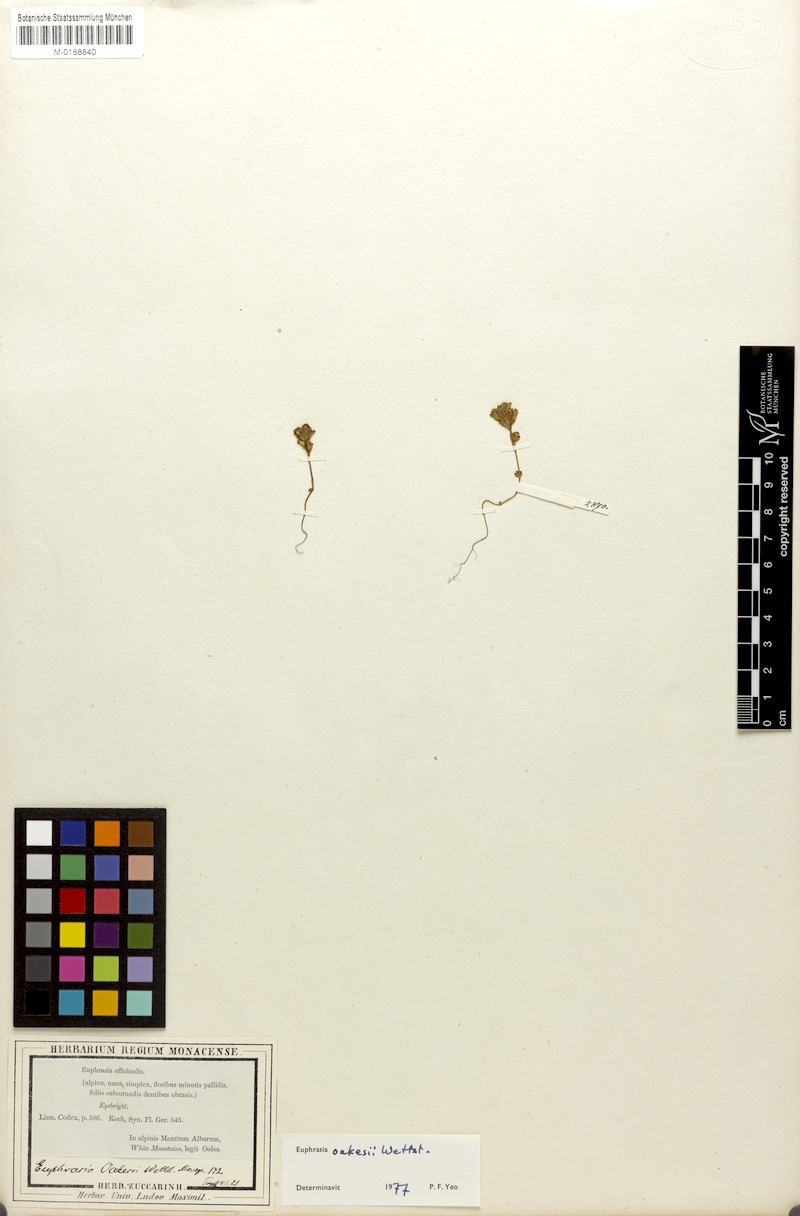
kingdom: Plantae
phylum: Tracheophyta
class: Magnoliopsida
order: Lamiales
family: Orobanchaceae
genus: Euphrasia
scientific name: Euphrasia oakesii
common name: Oakes' eyebright
